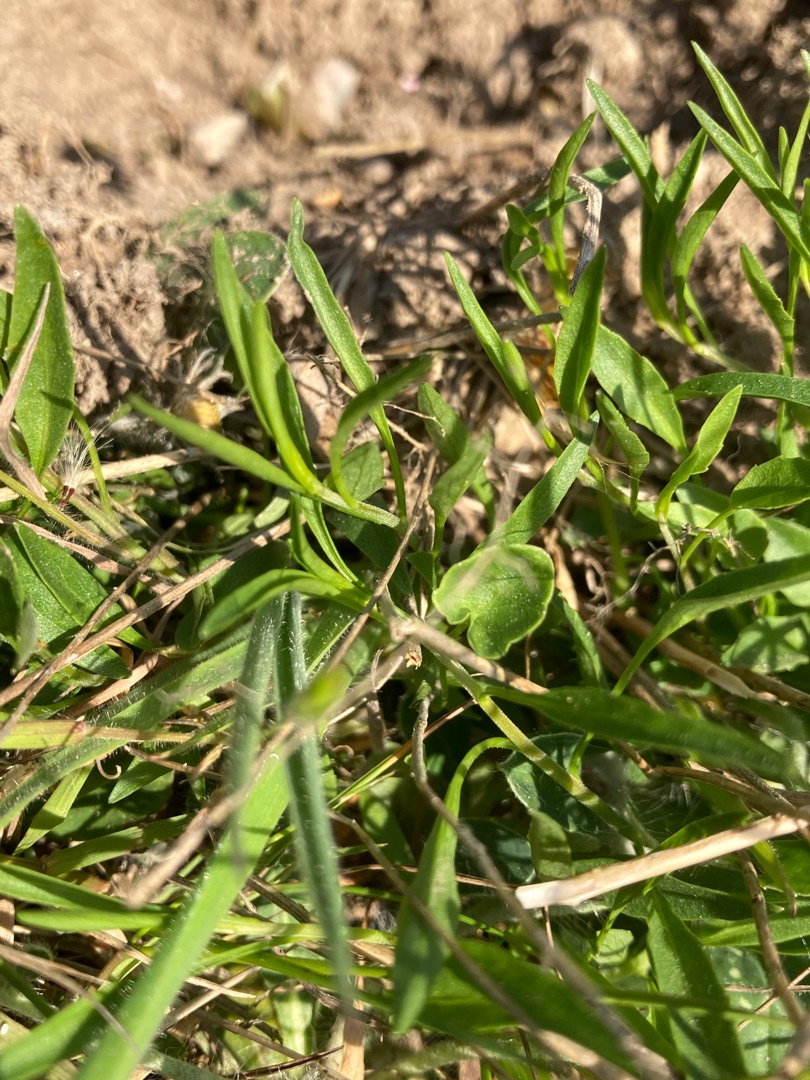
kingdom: Plantae
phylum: Tracheophyta
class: Magnoliopsida
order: Asterales
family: Campanulaceae
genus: Campanula
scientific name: Campanula rotundifolia
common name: Liden klokke
